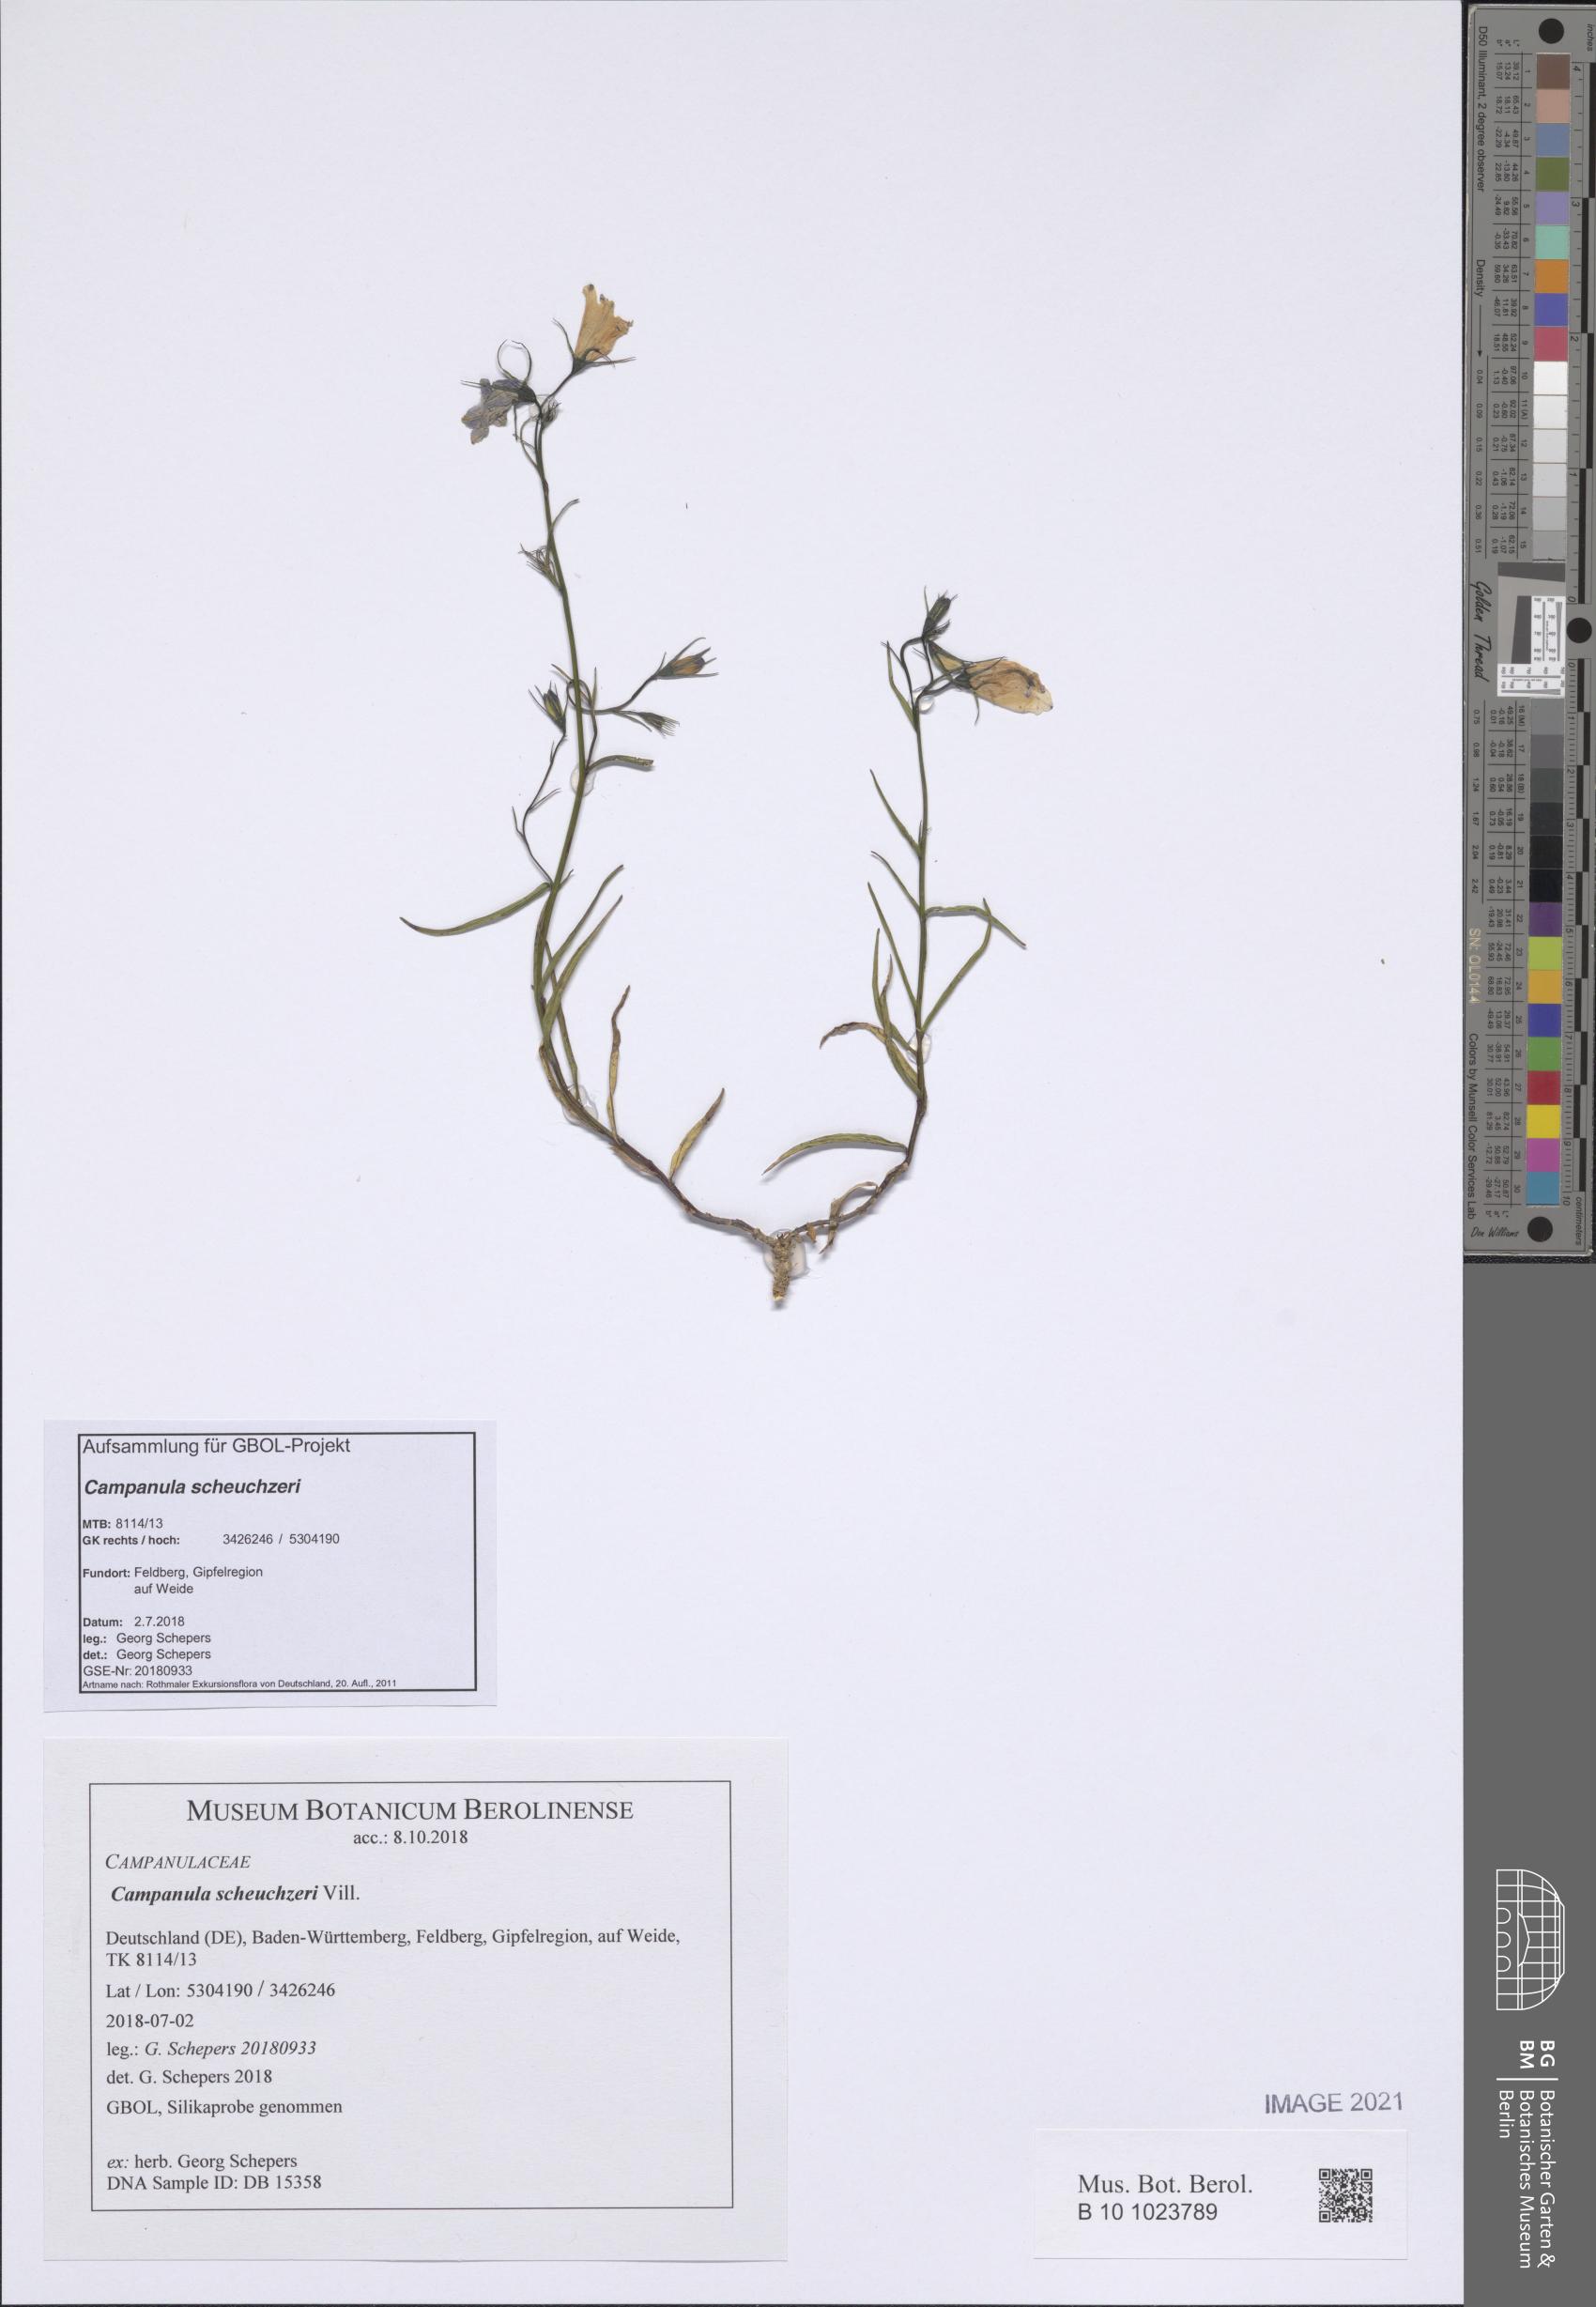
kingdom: Plantae
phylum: Tracheophyta
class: Magnoliopsida
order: Asterales
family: Campanulaceae
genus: Campanula
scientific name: Campanula scheuchzeri
